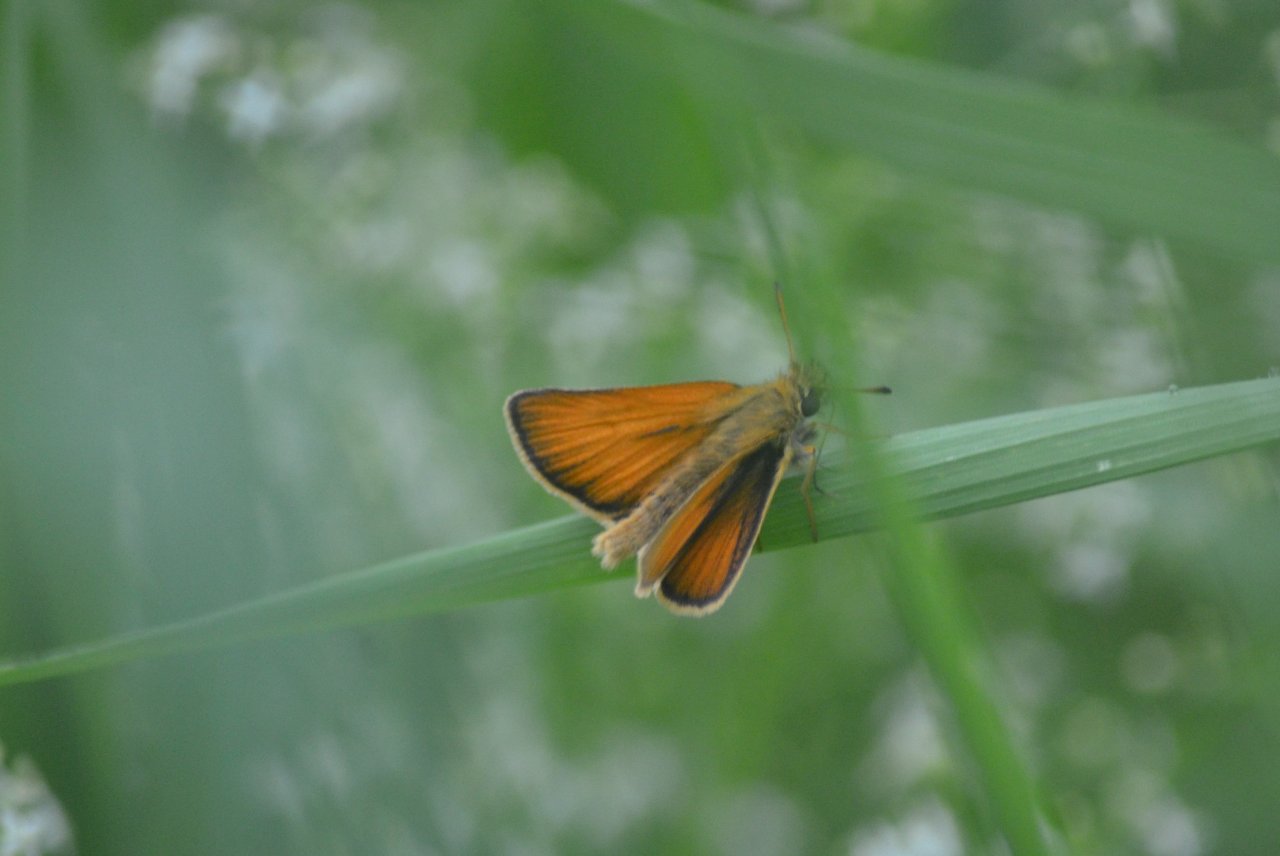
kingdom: Animalia
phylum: Arthropoda
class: Insecta
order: Lepidoptera
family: Hesperiidae
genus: Thymelicus
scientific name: Thymelicus lineola
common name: European Skipper
